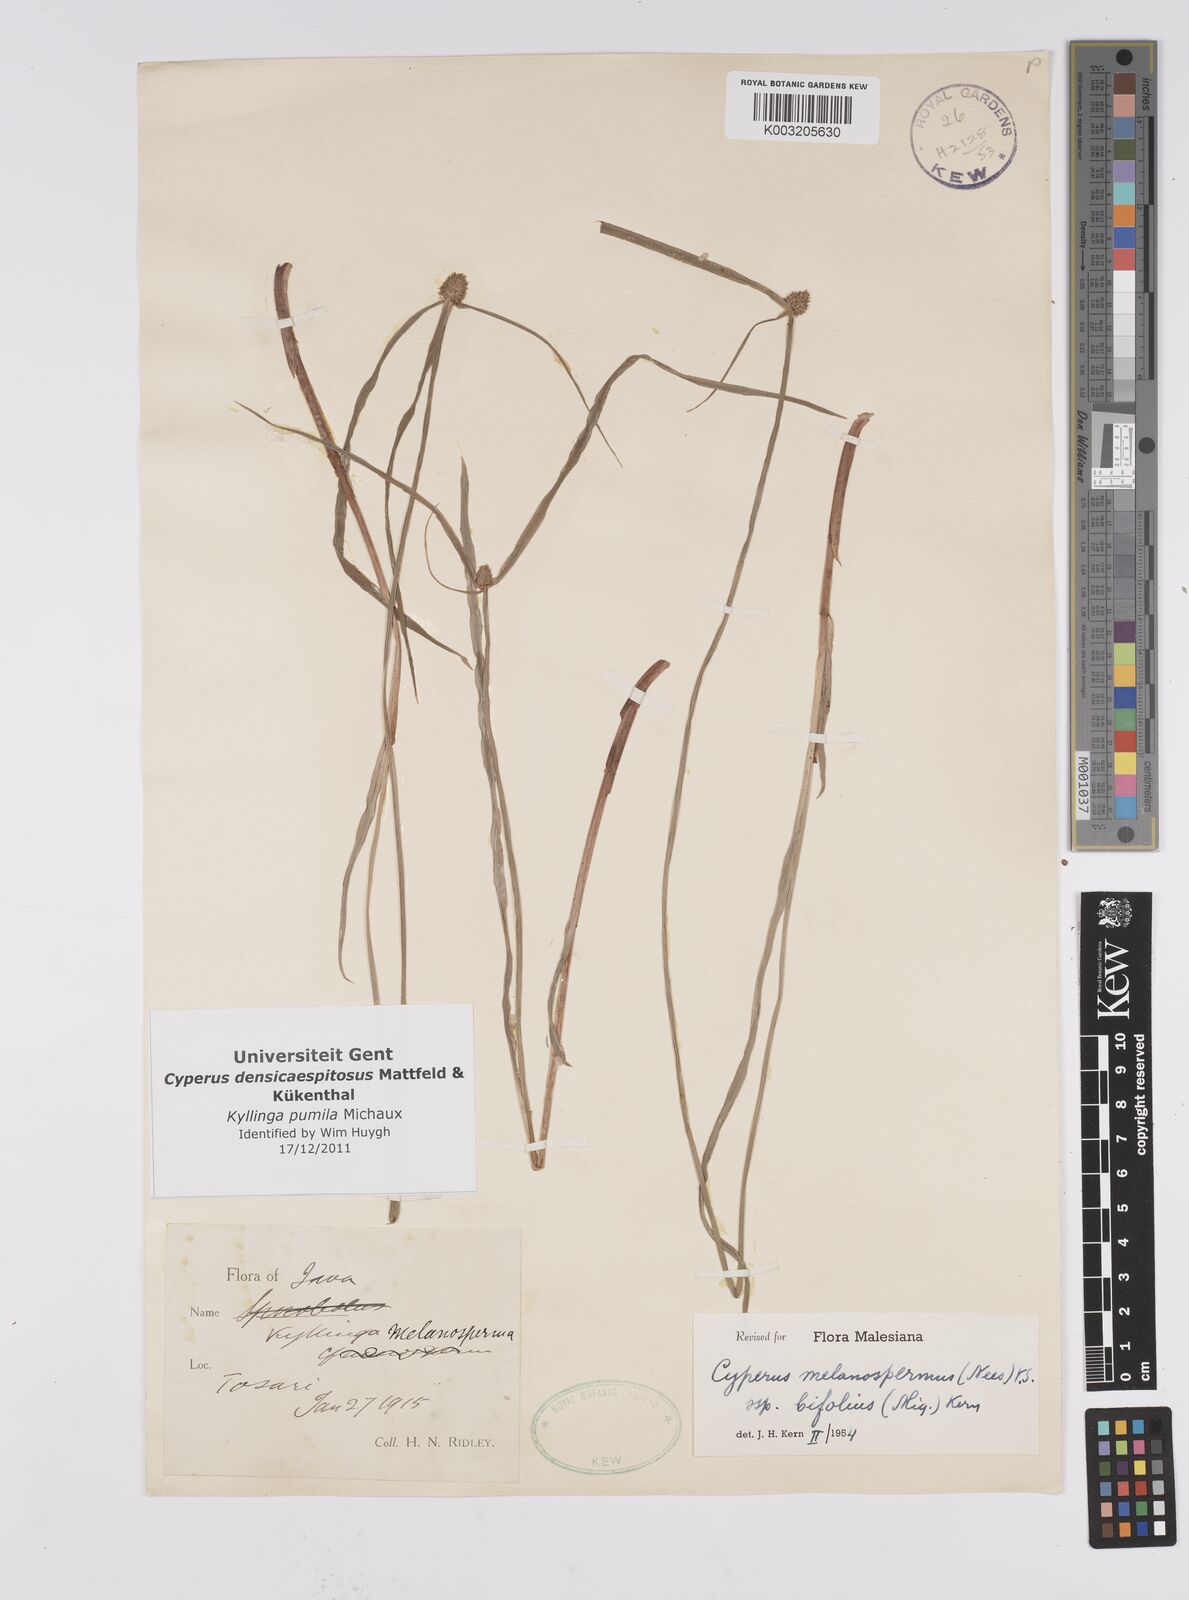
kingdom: Plantae
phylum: Tracheophyta
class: Liliopsida
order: Poales
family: Cyperaceae
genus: Cyperus
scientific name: Cyperus pumilus
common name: Low flatsedge
